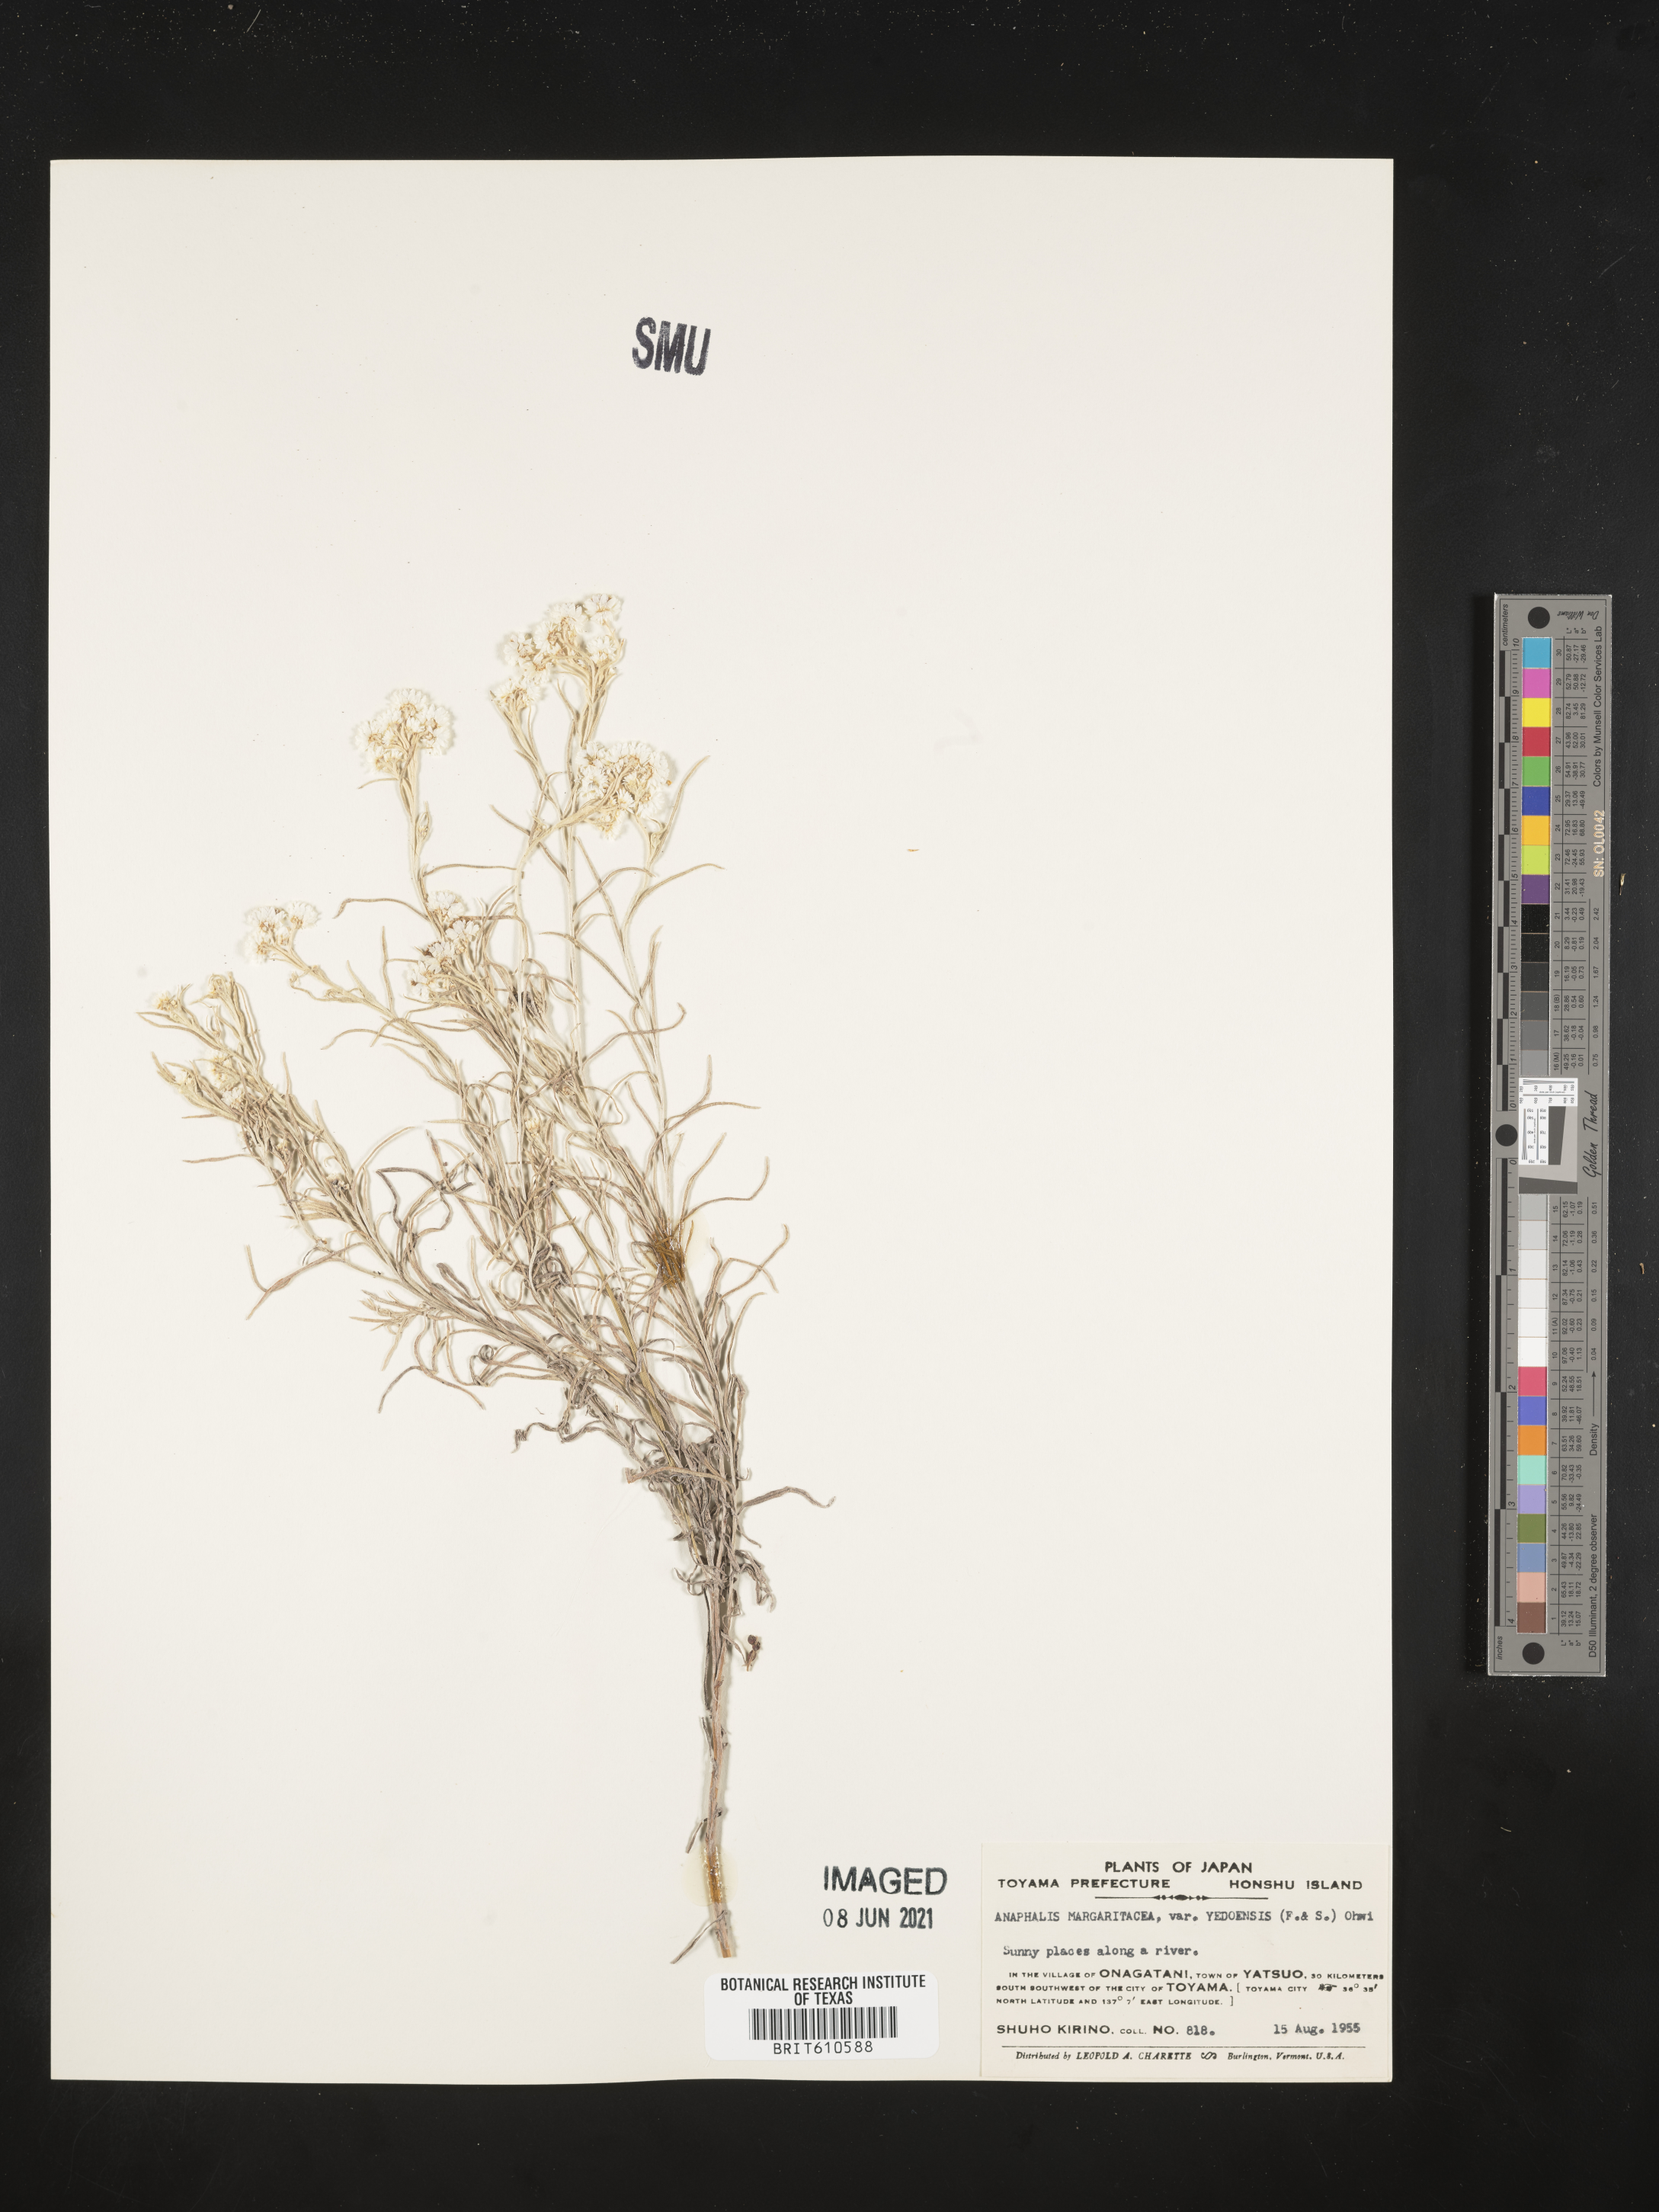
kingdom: Plantae
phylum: Tracheophyta
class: Magnoliopsida
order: Asterales
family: Asteraceae
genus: Anaphalis
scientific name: Anaphalis margaritacea
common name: Pearly everlasting
